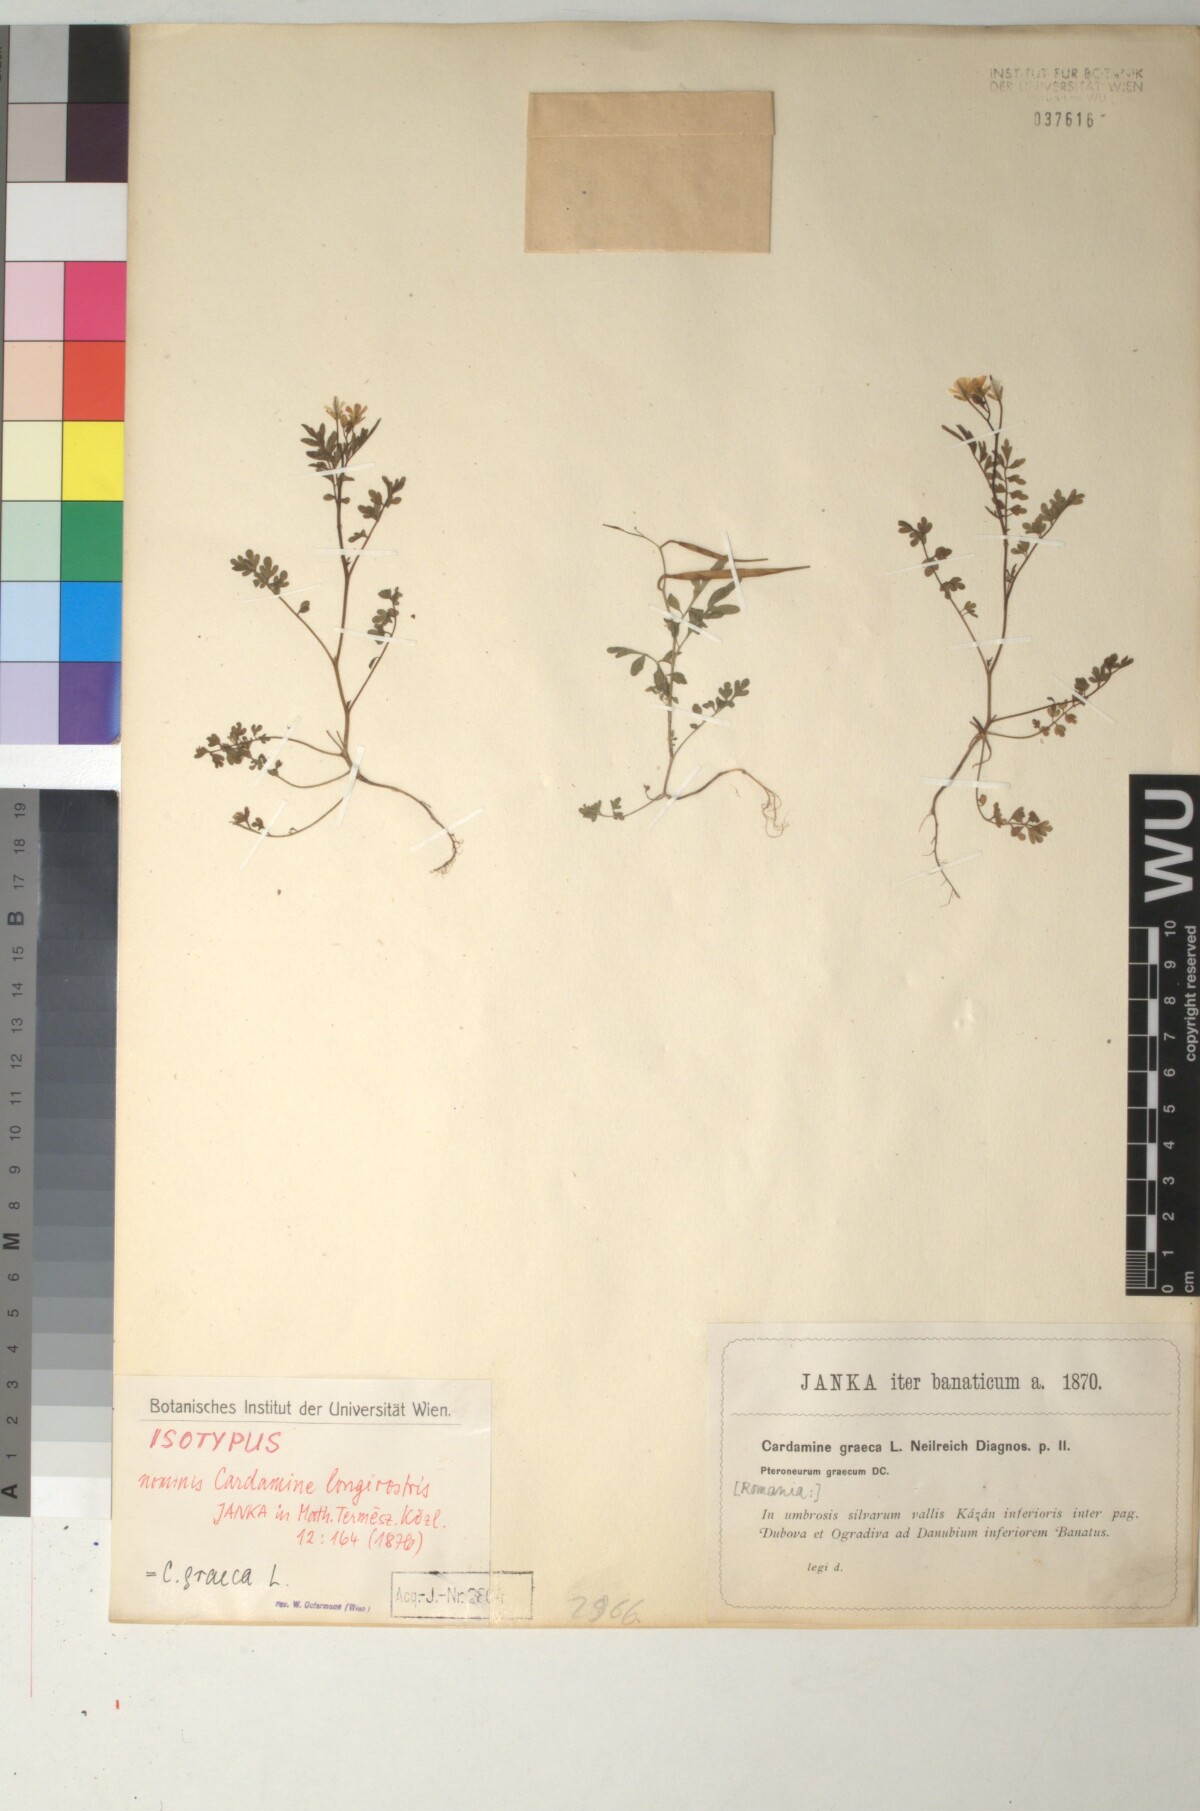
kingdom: Plantae
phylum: Tracheophyta
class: Magnoliopsida
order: Brassicales
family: Brassicaceae
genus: Cardamine
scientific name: Cardamine graeca
